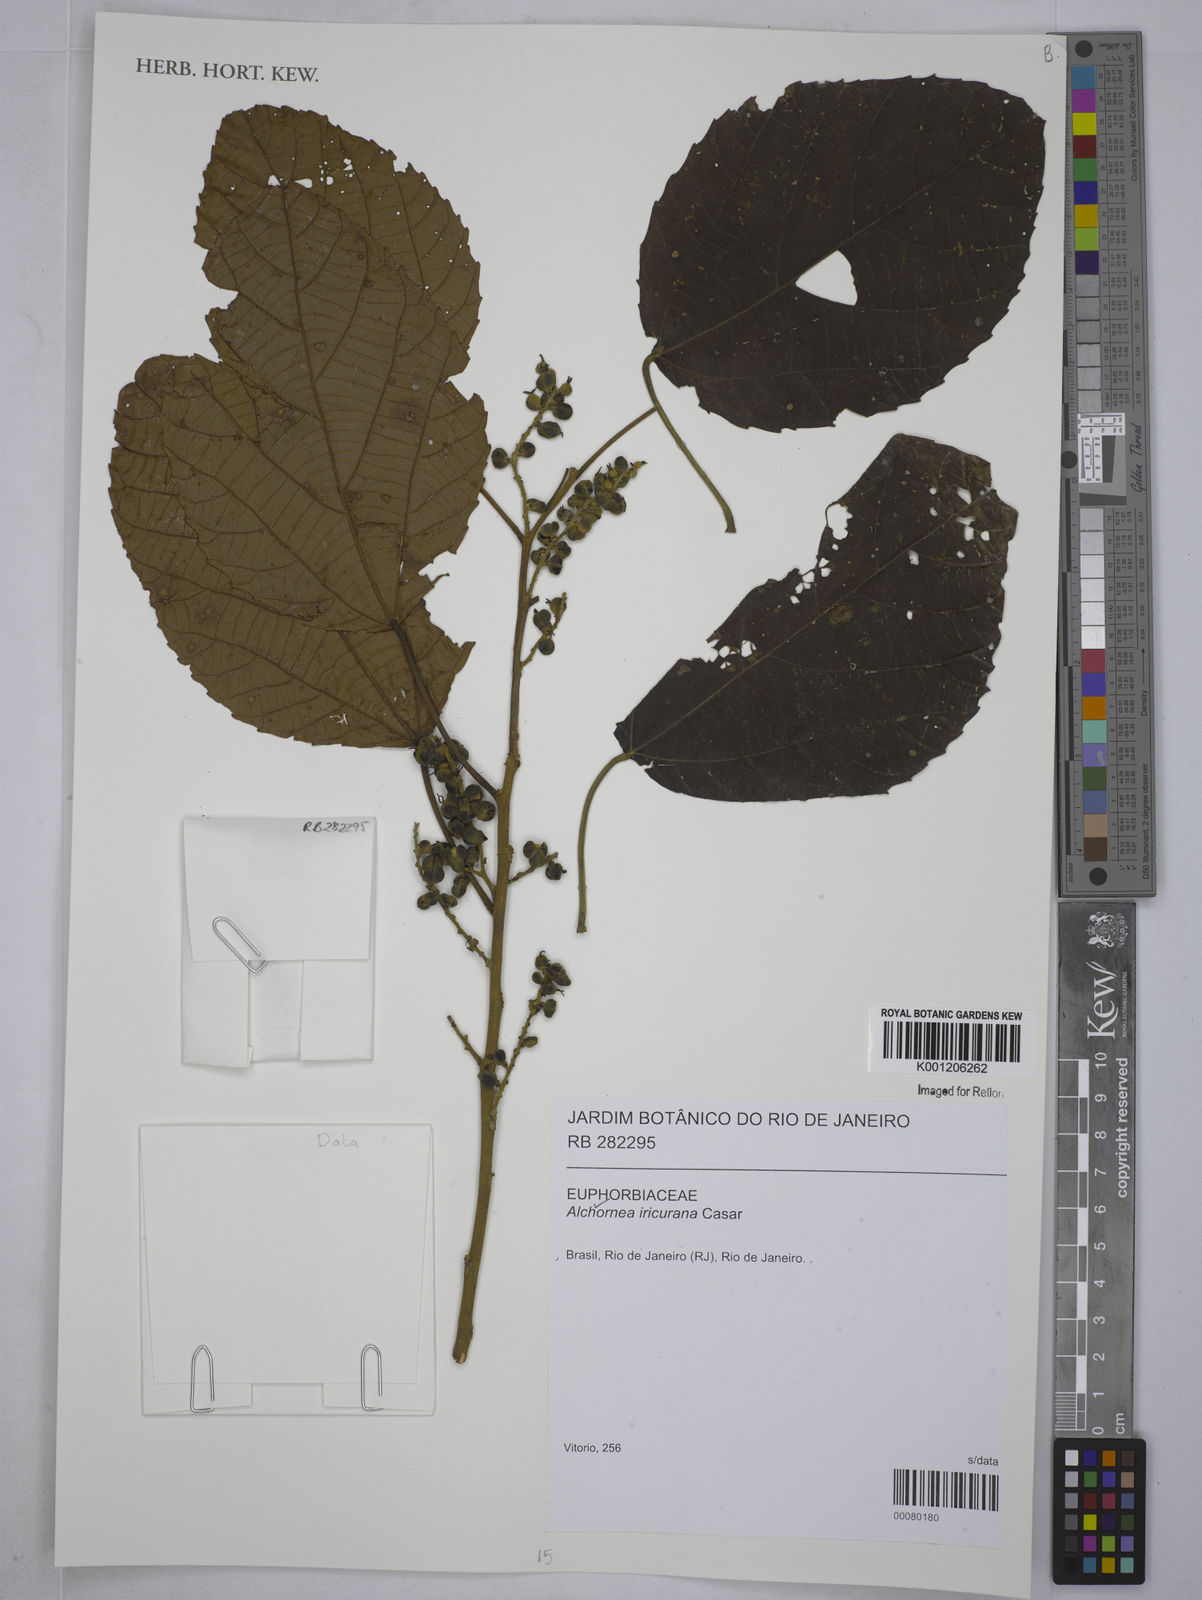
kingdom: Plantae
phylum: Tracheophyta
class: Magnoliopsida
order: Malpighiales
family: Euphorbiaceae
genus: Alchornea
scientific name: Alchornea glandulosa
